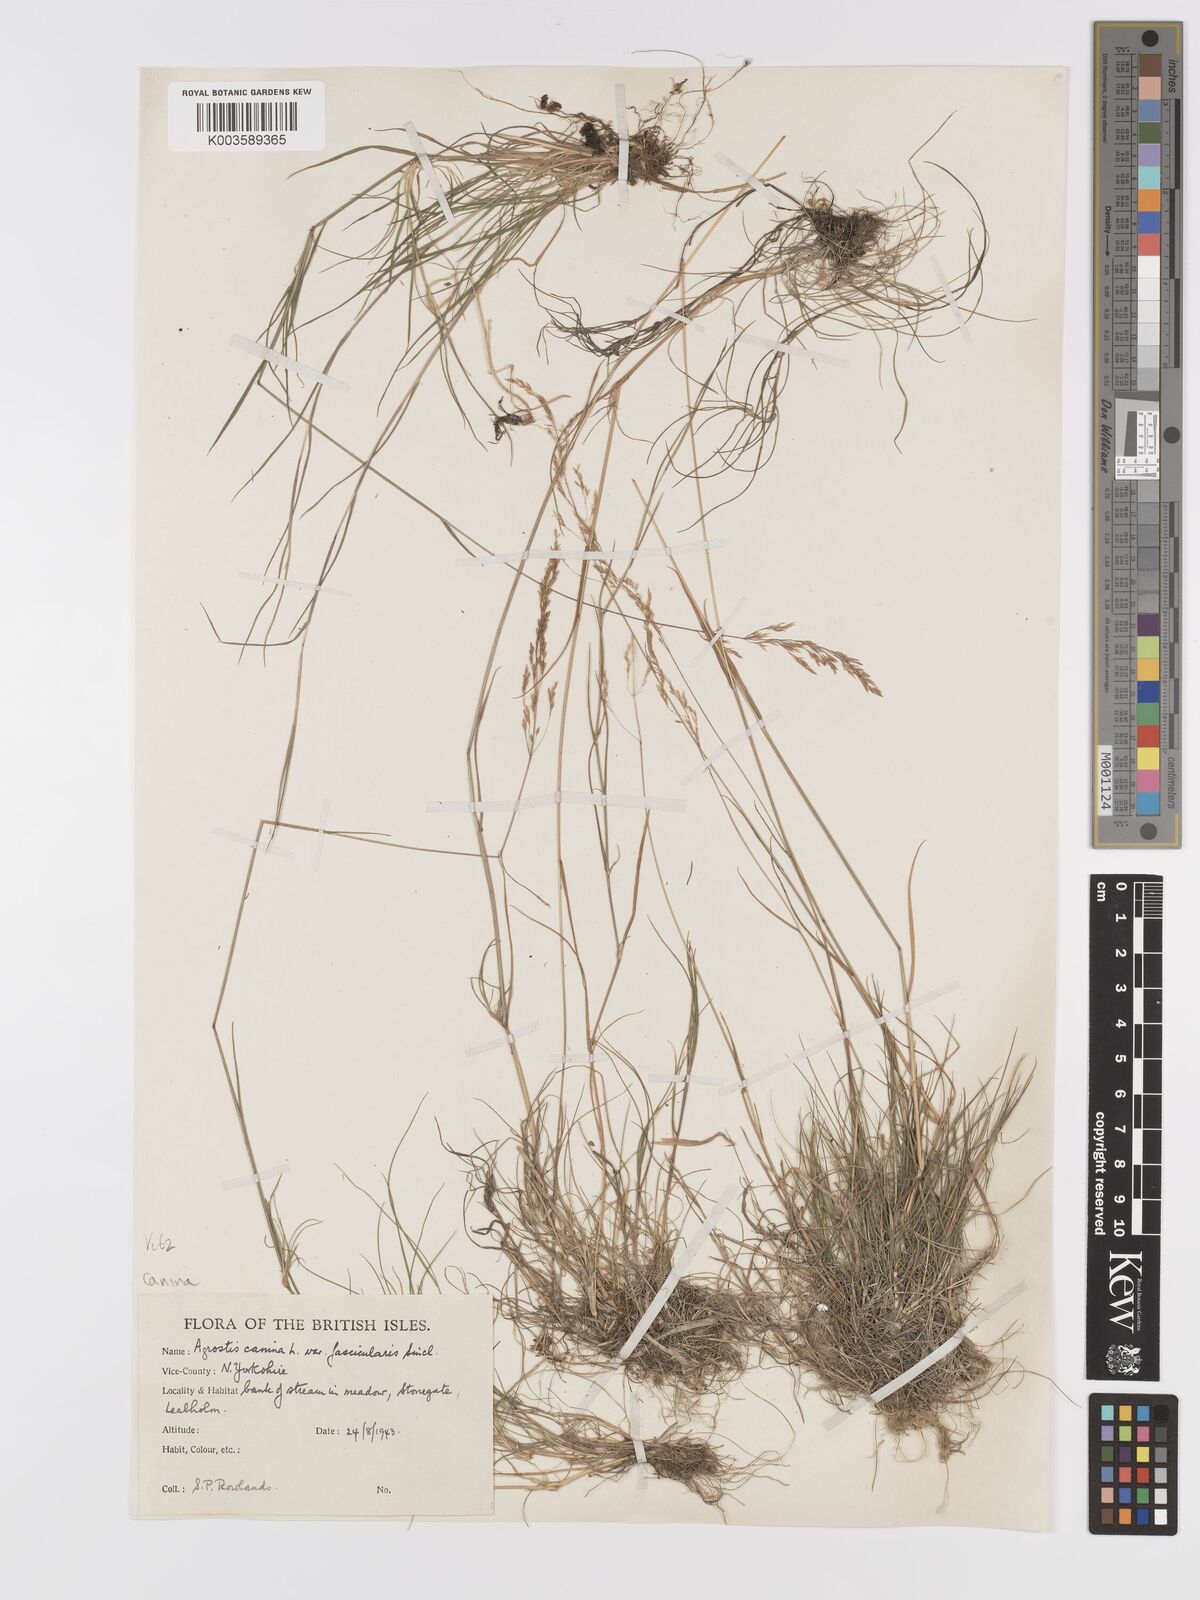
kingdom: Plantae
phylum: Tracheophyta
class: Liliopsida
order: Poales
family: Poaceae
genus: Agrostis
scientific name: Agrostis canina
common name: Velvet bent
